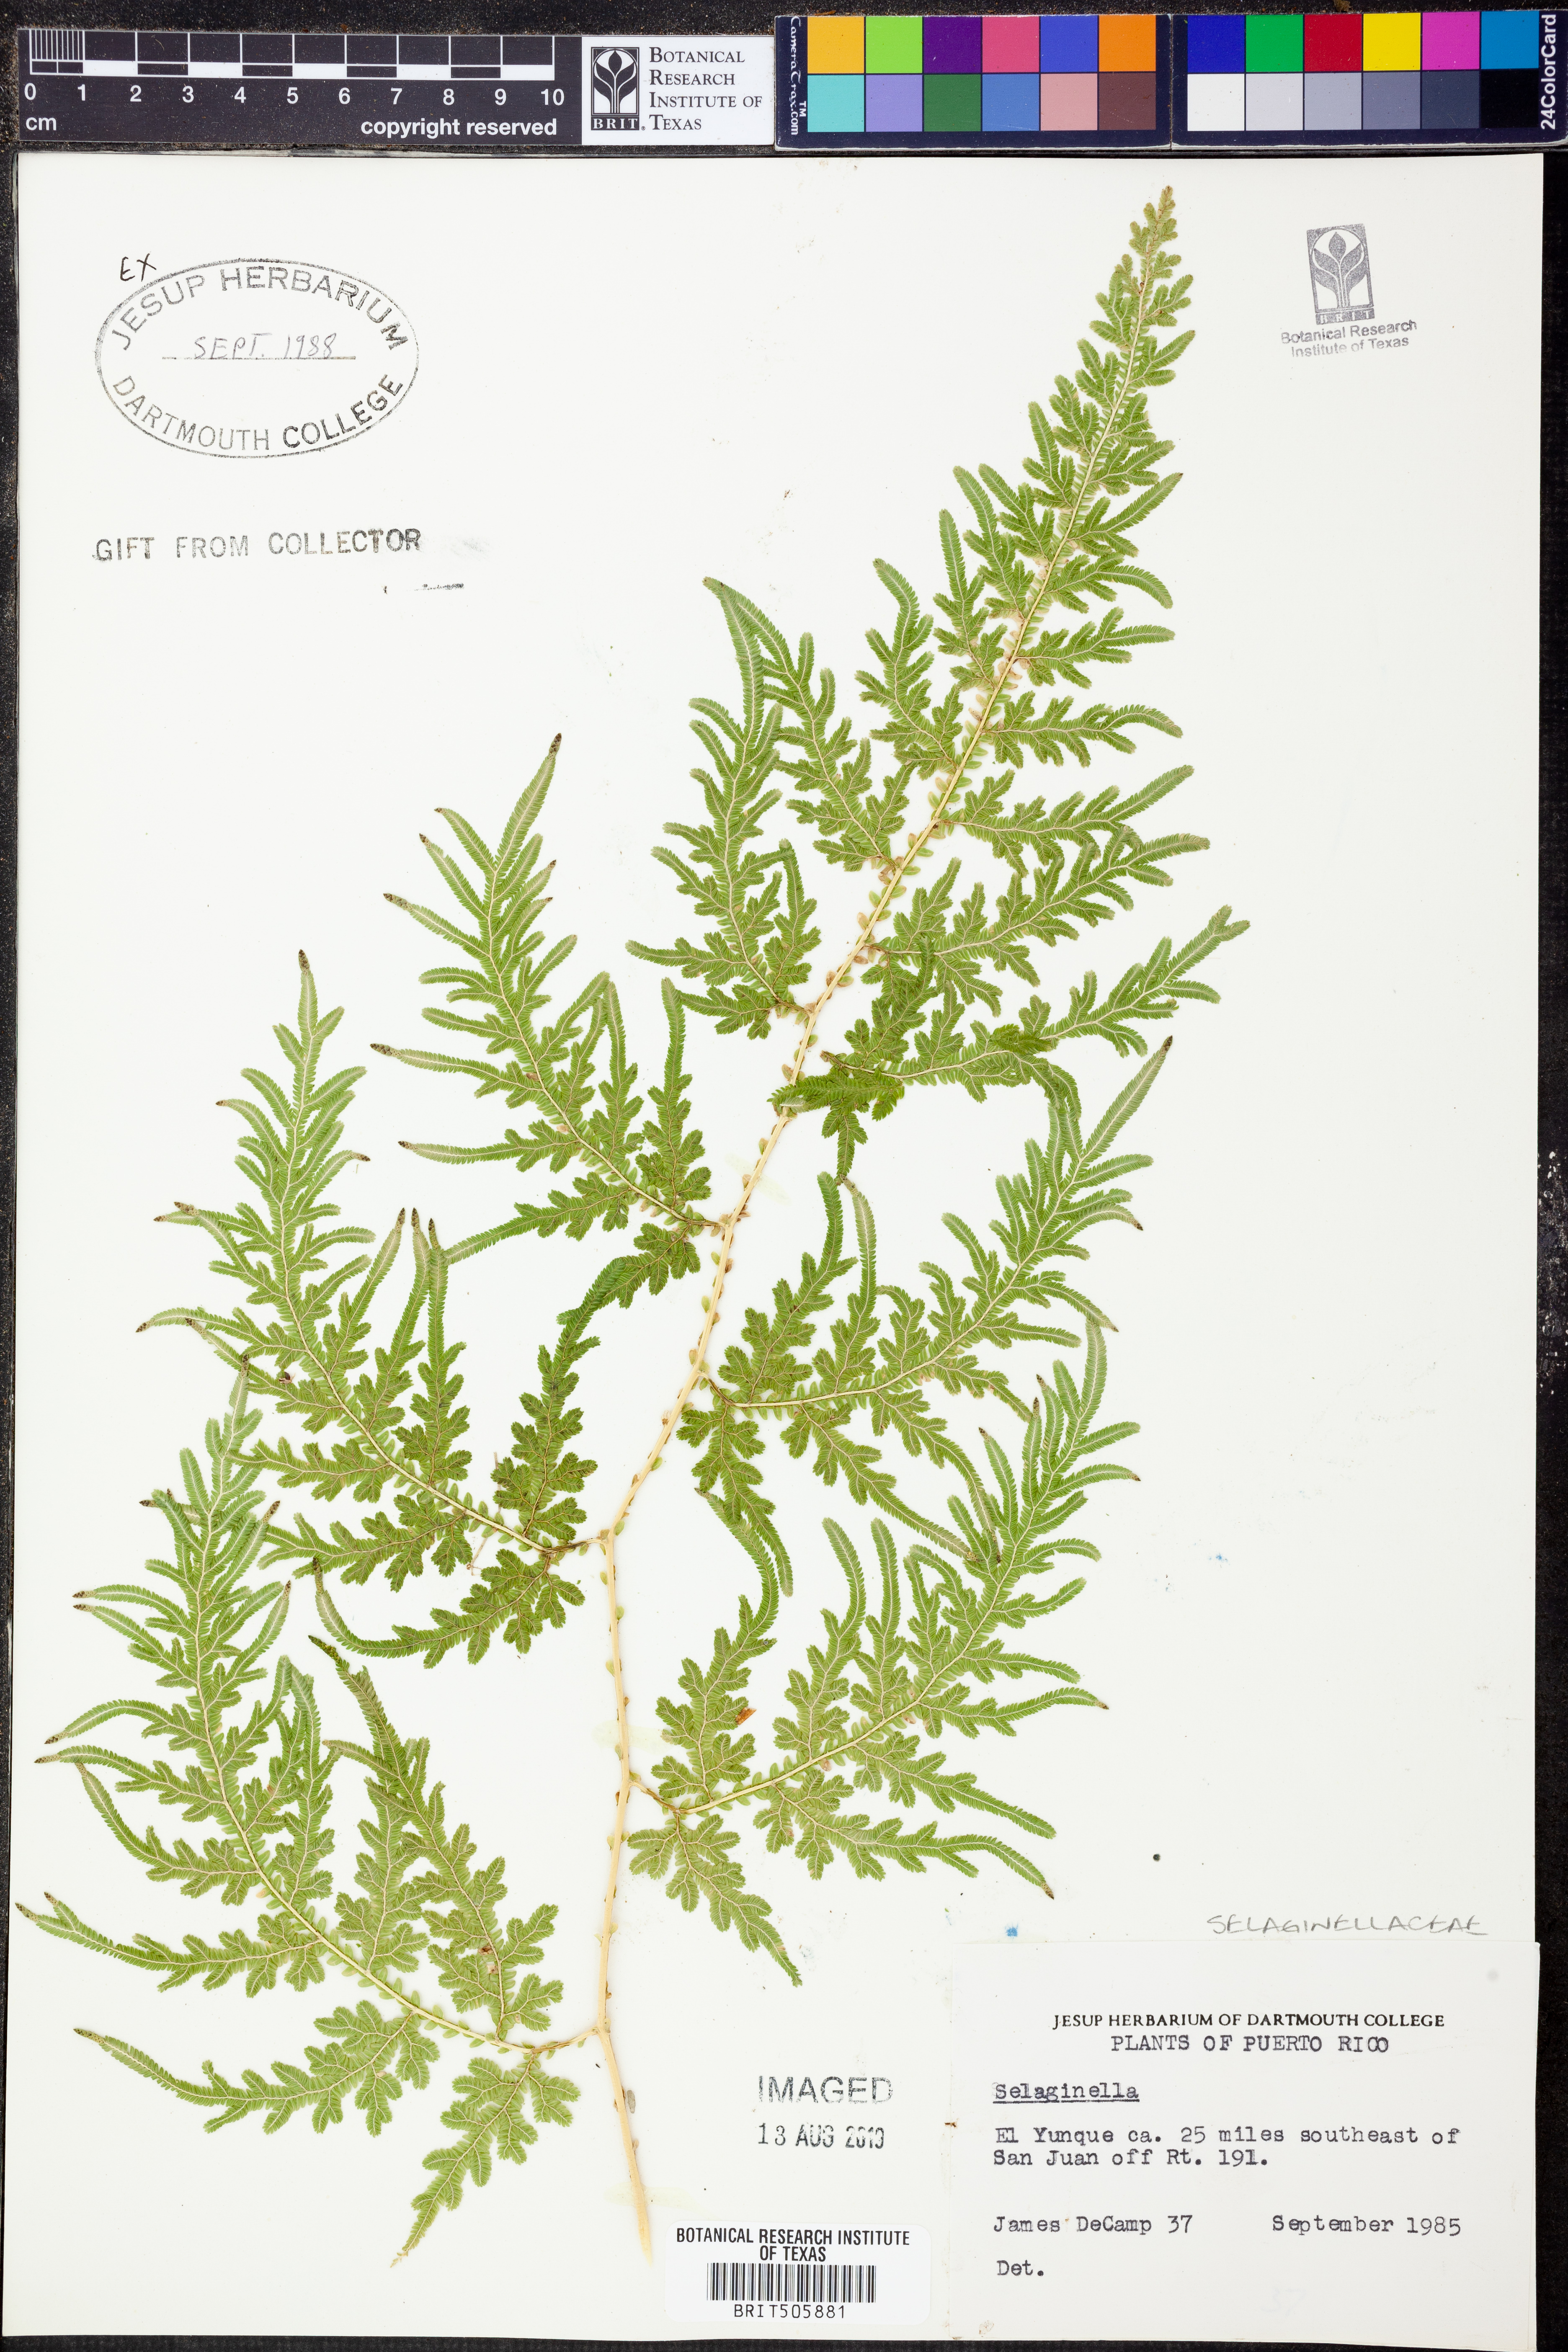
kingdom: Plantae
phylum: Tracheophyta
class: Lycopodiopsida
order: Selaginellales
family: Selaginellaceae
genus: Selaginella
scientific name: Selaginella
